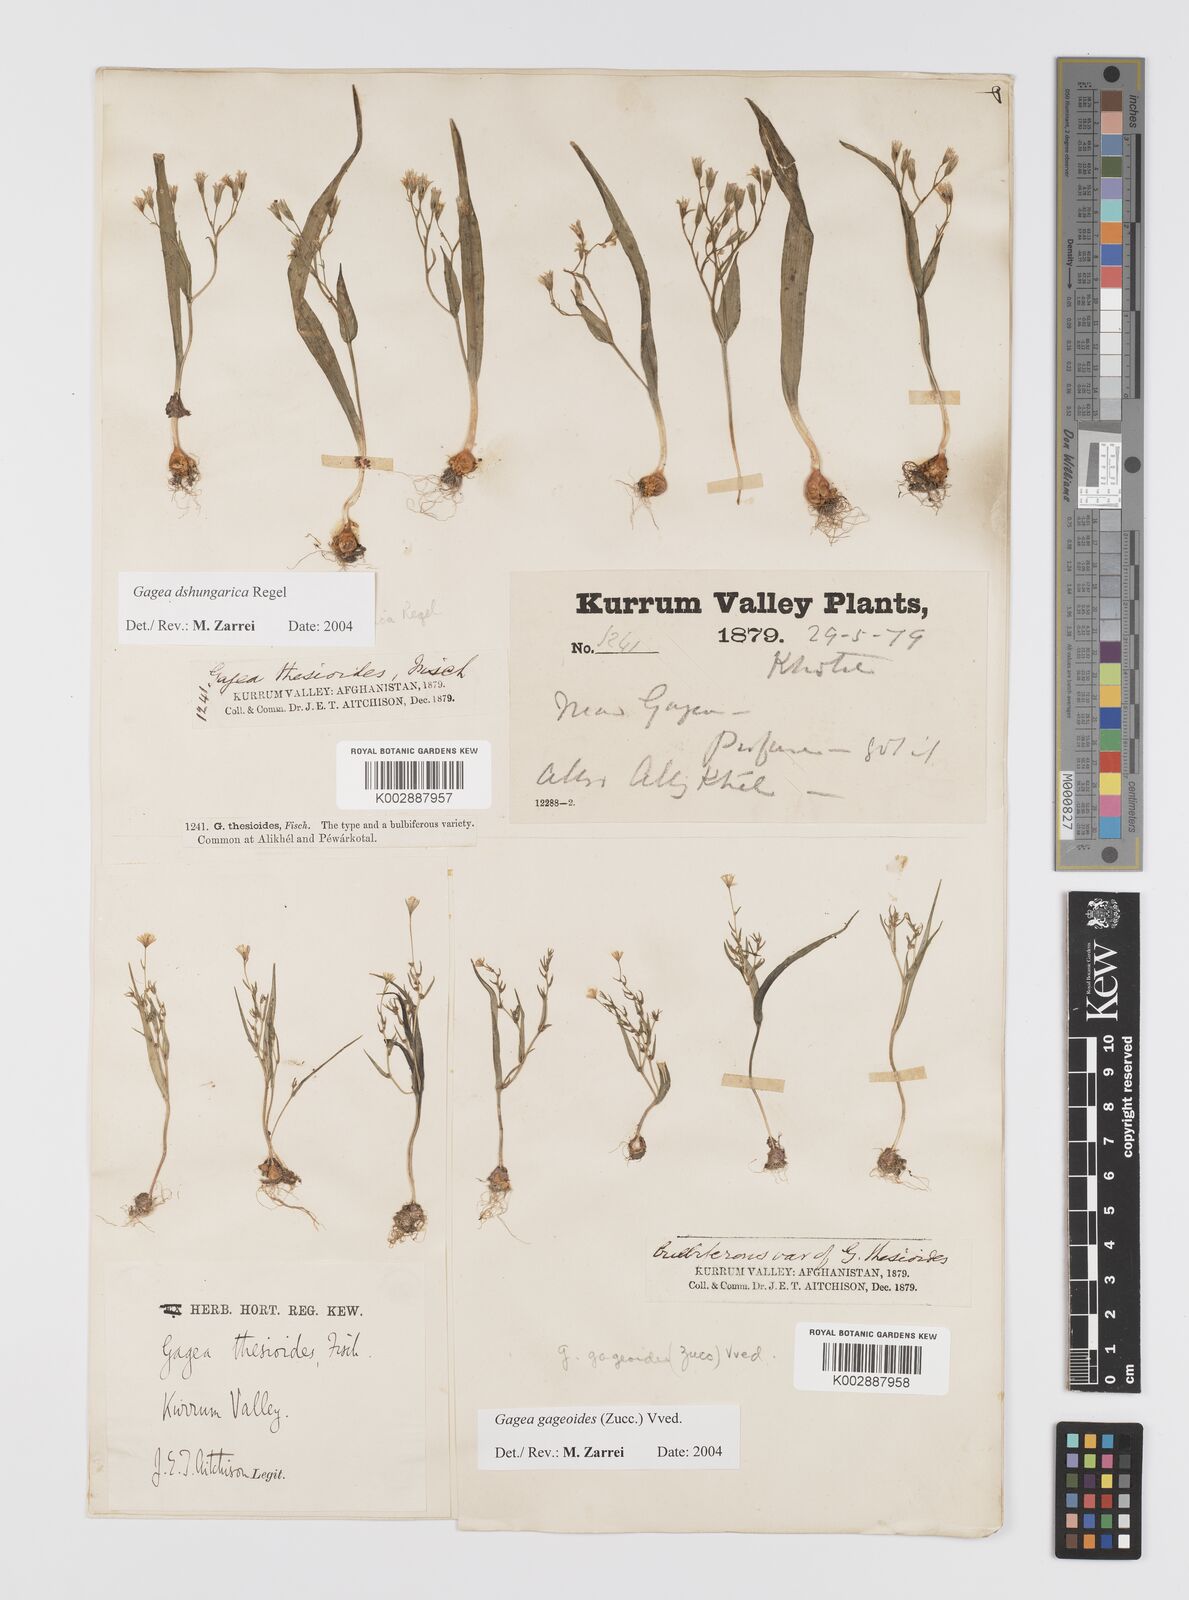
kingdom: Plantae
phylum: Tracheophyta
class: Liliopsida
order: Liliales
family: Liliaceae
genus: Gagea
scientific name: Gagea dschungarica
